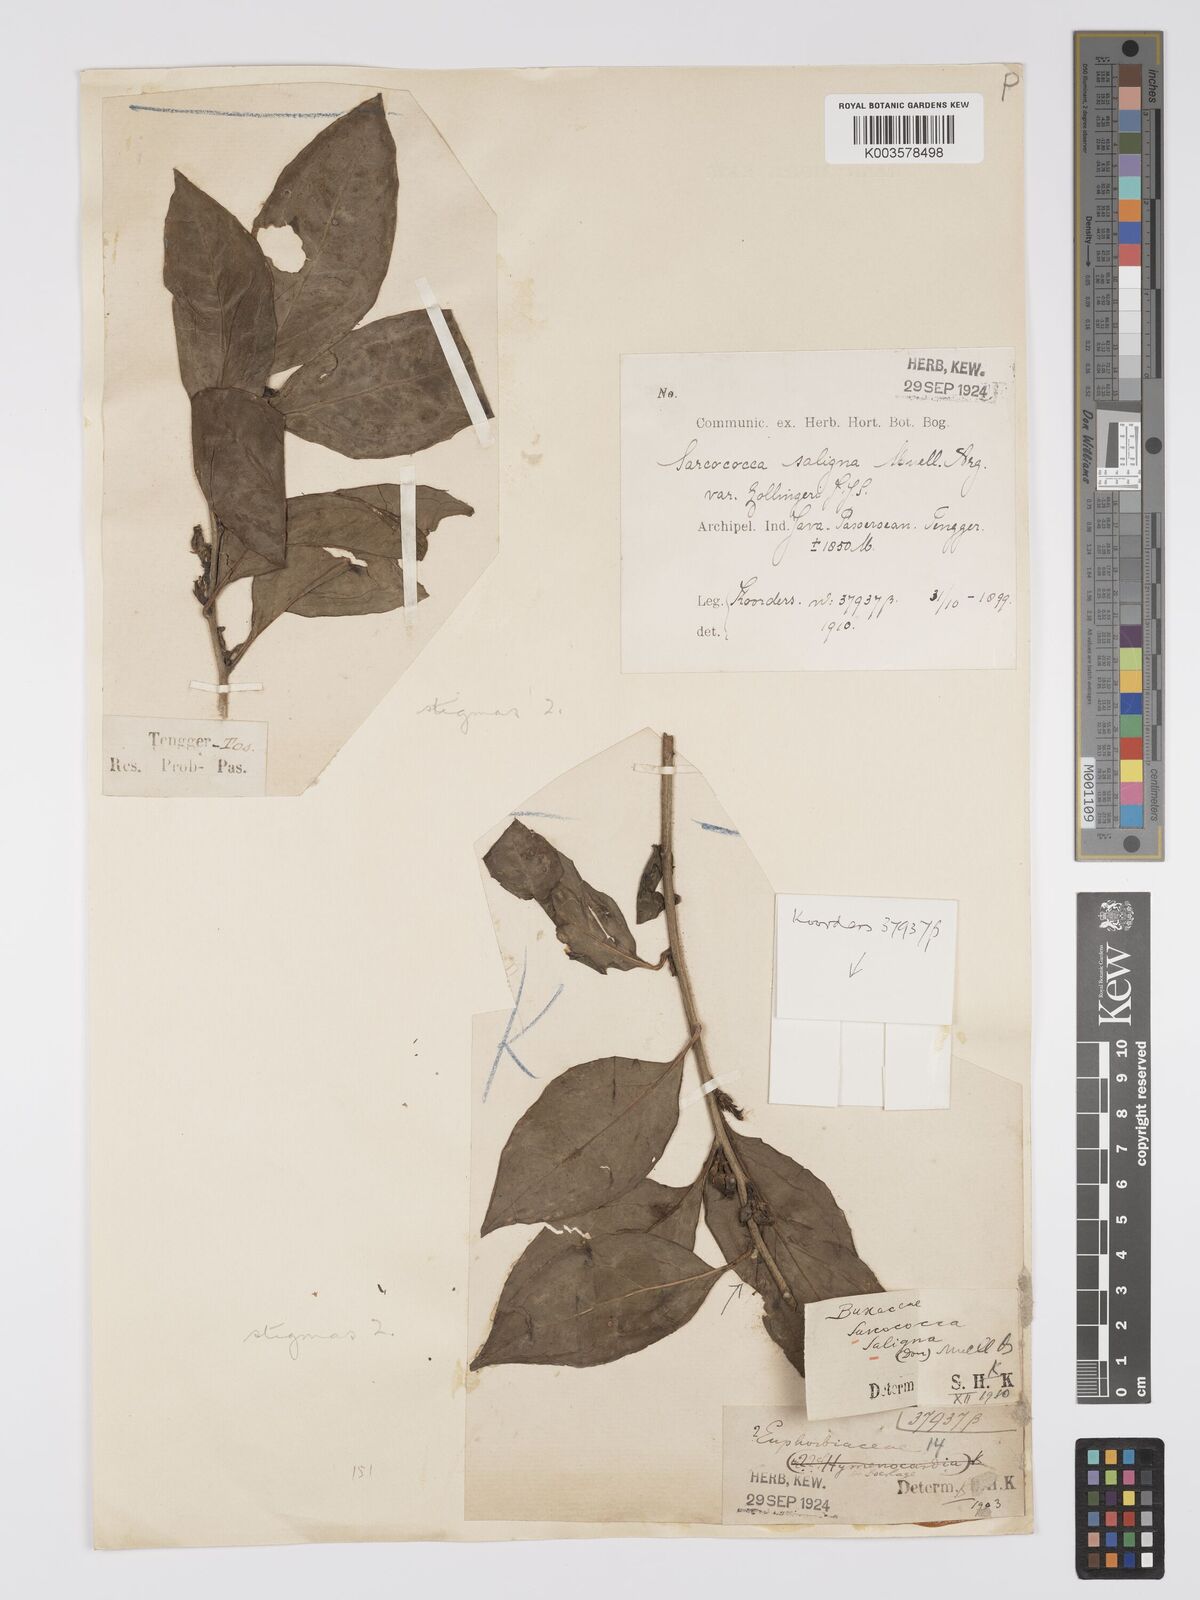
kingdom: Plantae
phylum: Tracheophyta
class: Magnoliopsida
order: Buxales
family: Buxaceae
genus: Sarcococca
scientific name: Sarcococca saligna
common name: Willow-leaf sweet-box
